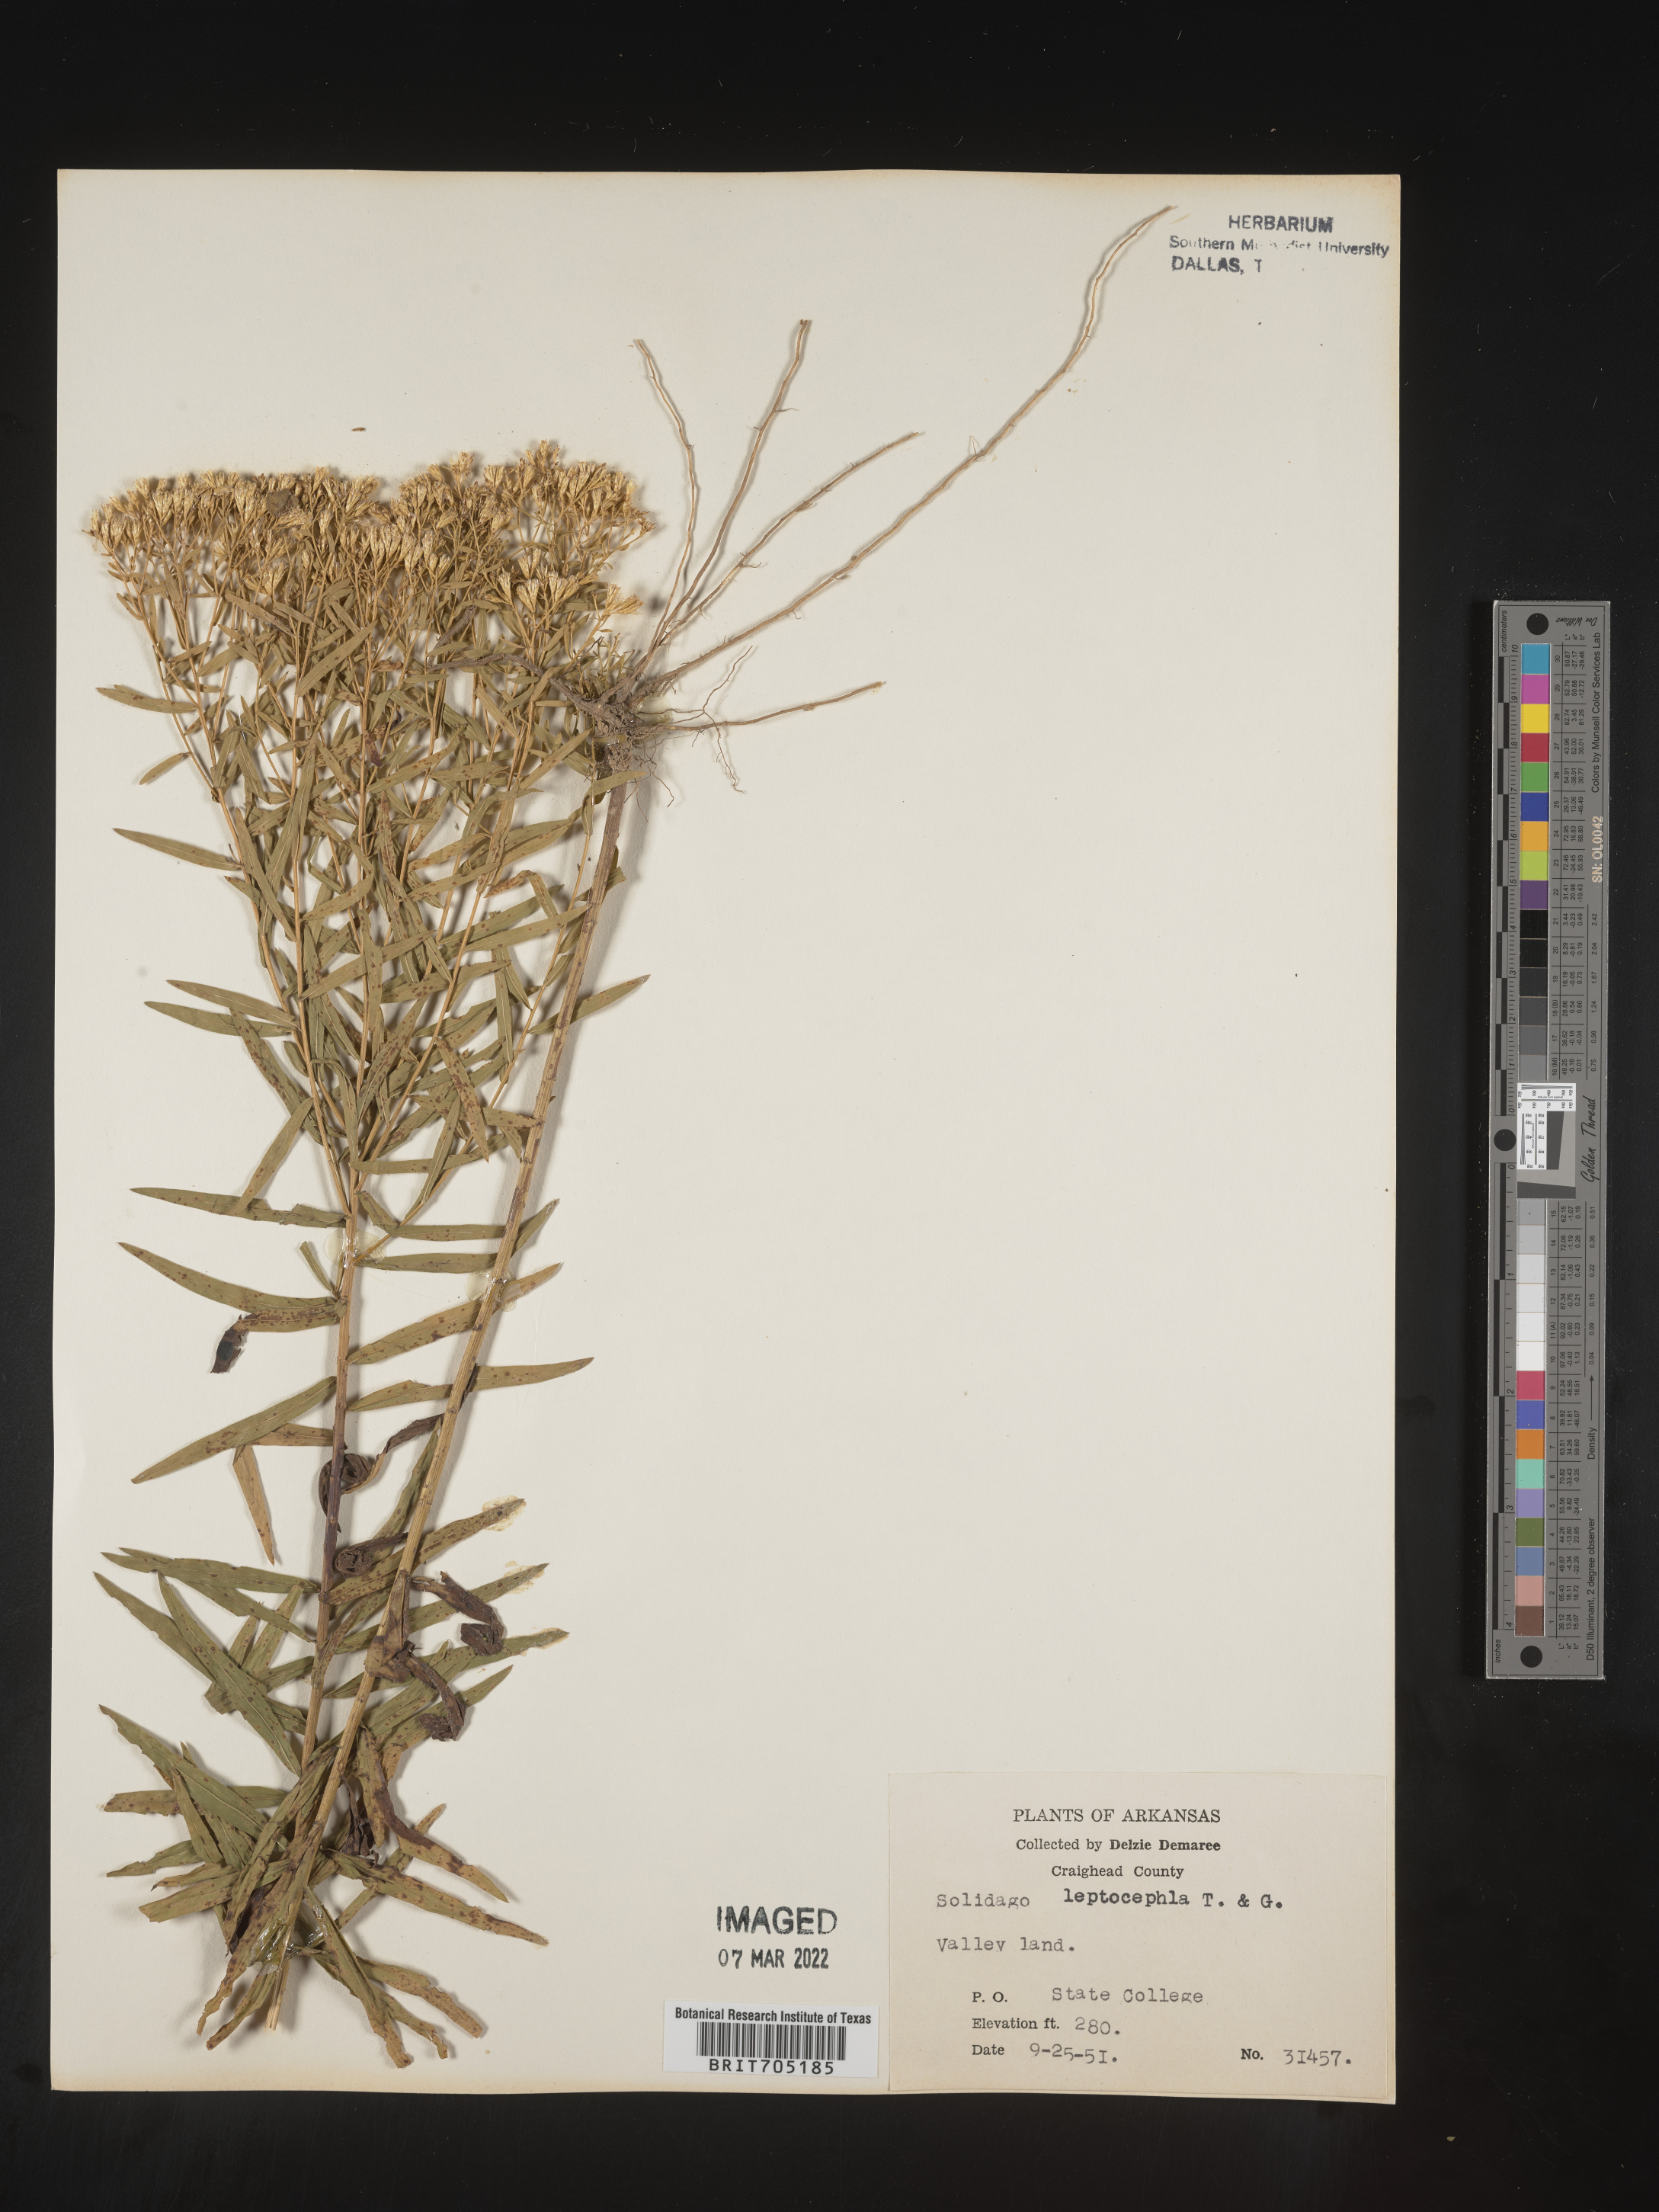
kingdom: Plantae
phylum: Tracheophyta
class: Magnoliopsida
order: Asterales
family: Asteraceae
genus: Euthamia
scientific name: Euthamia leptocephala
